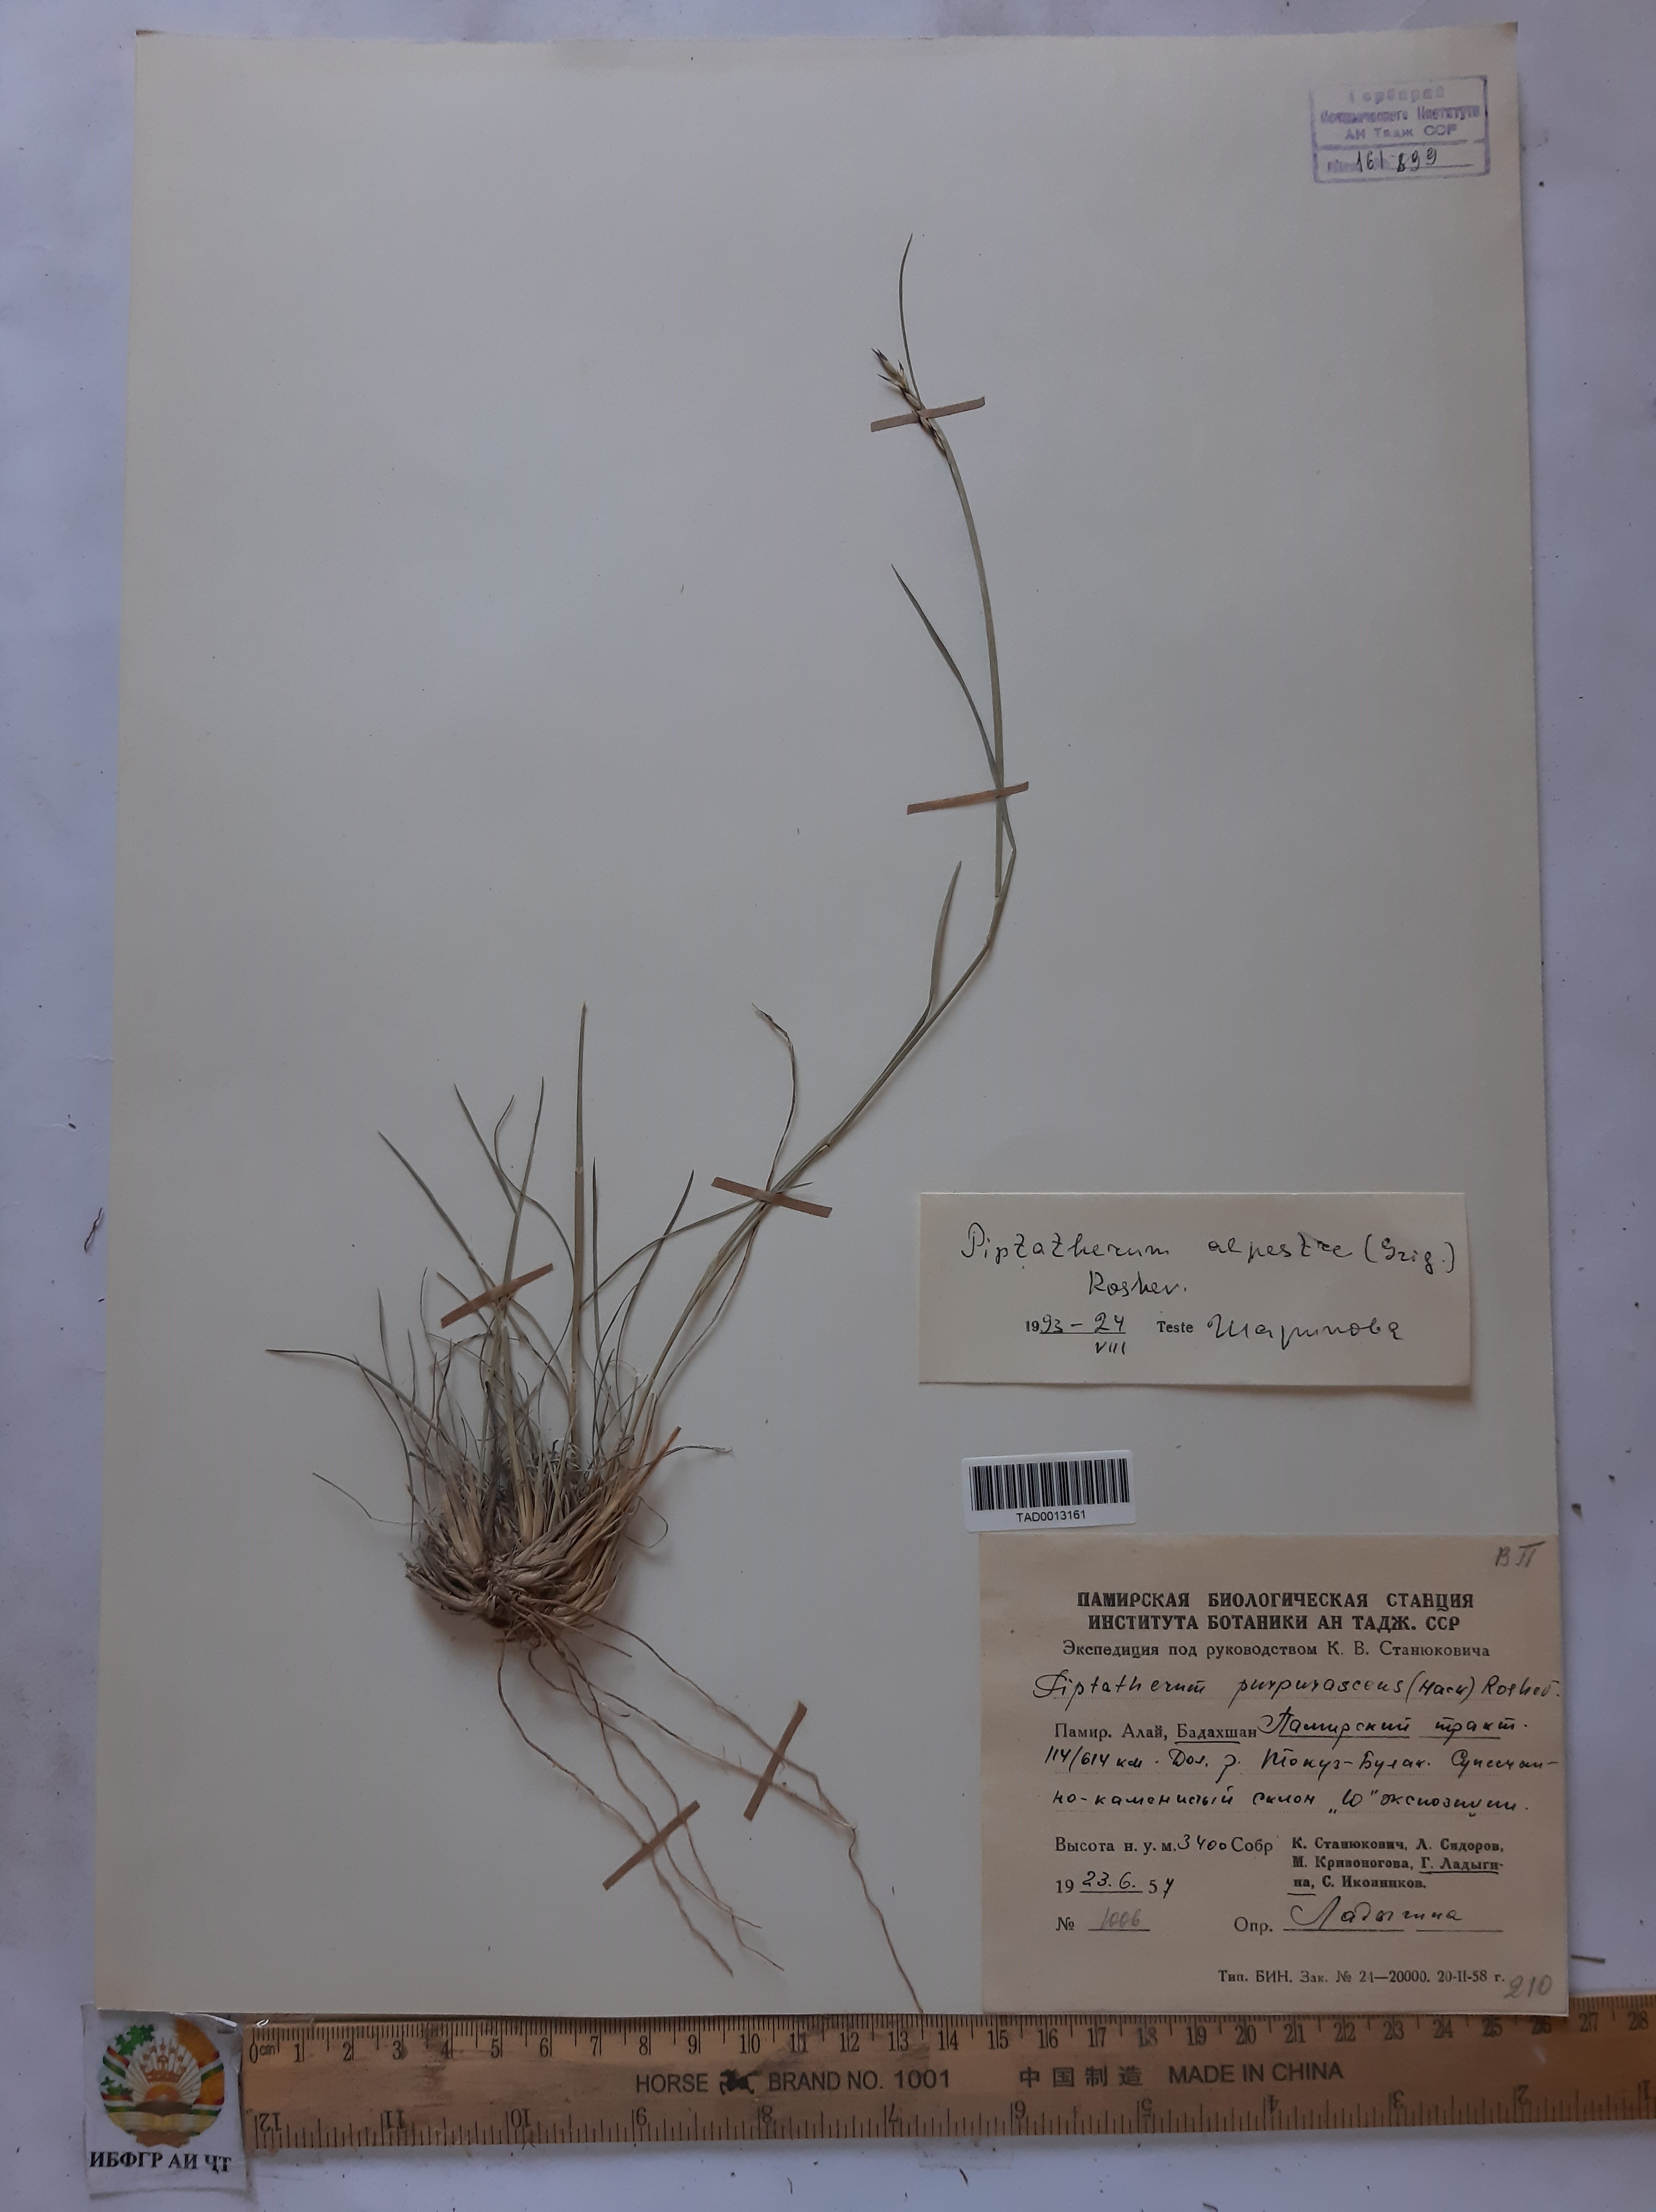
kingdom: Plantae
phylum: Tracheophyta
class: Liliopsida
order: Poales
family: Poaceae
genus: Piptatherum
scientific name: Piptatherum alpestre
